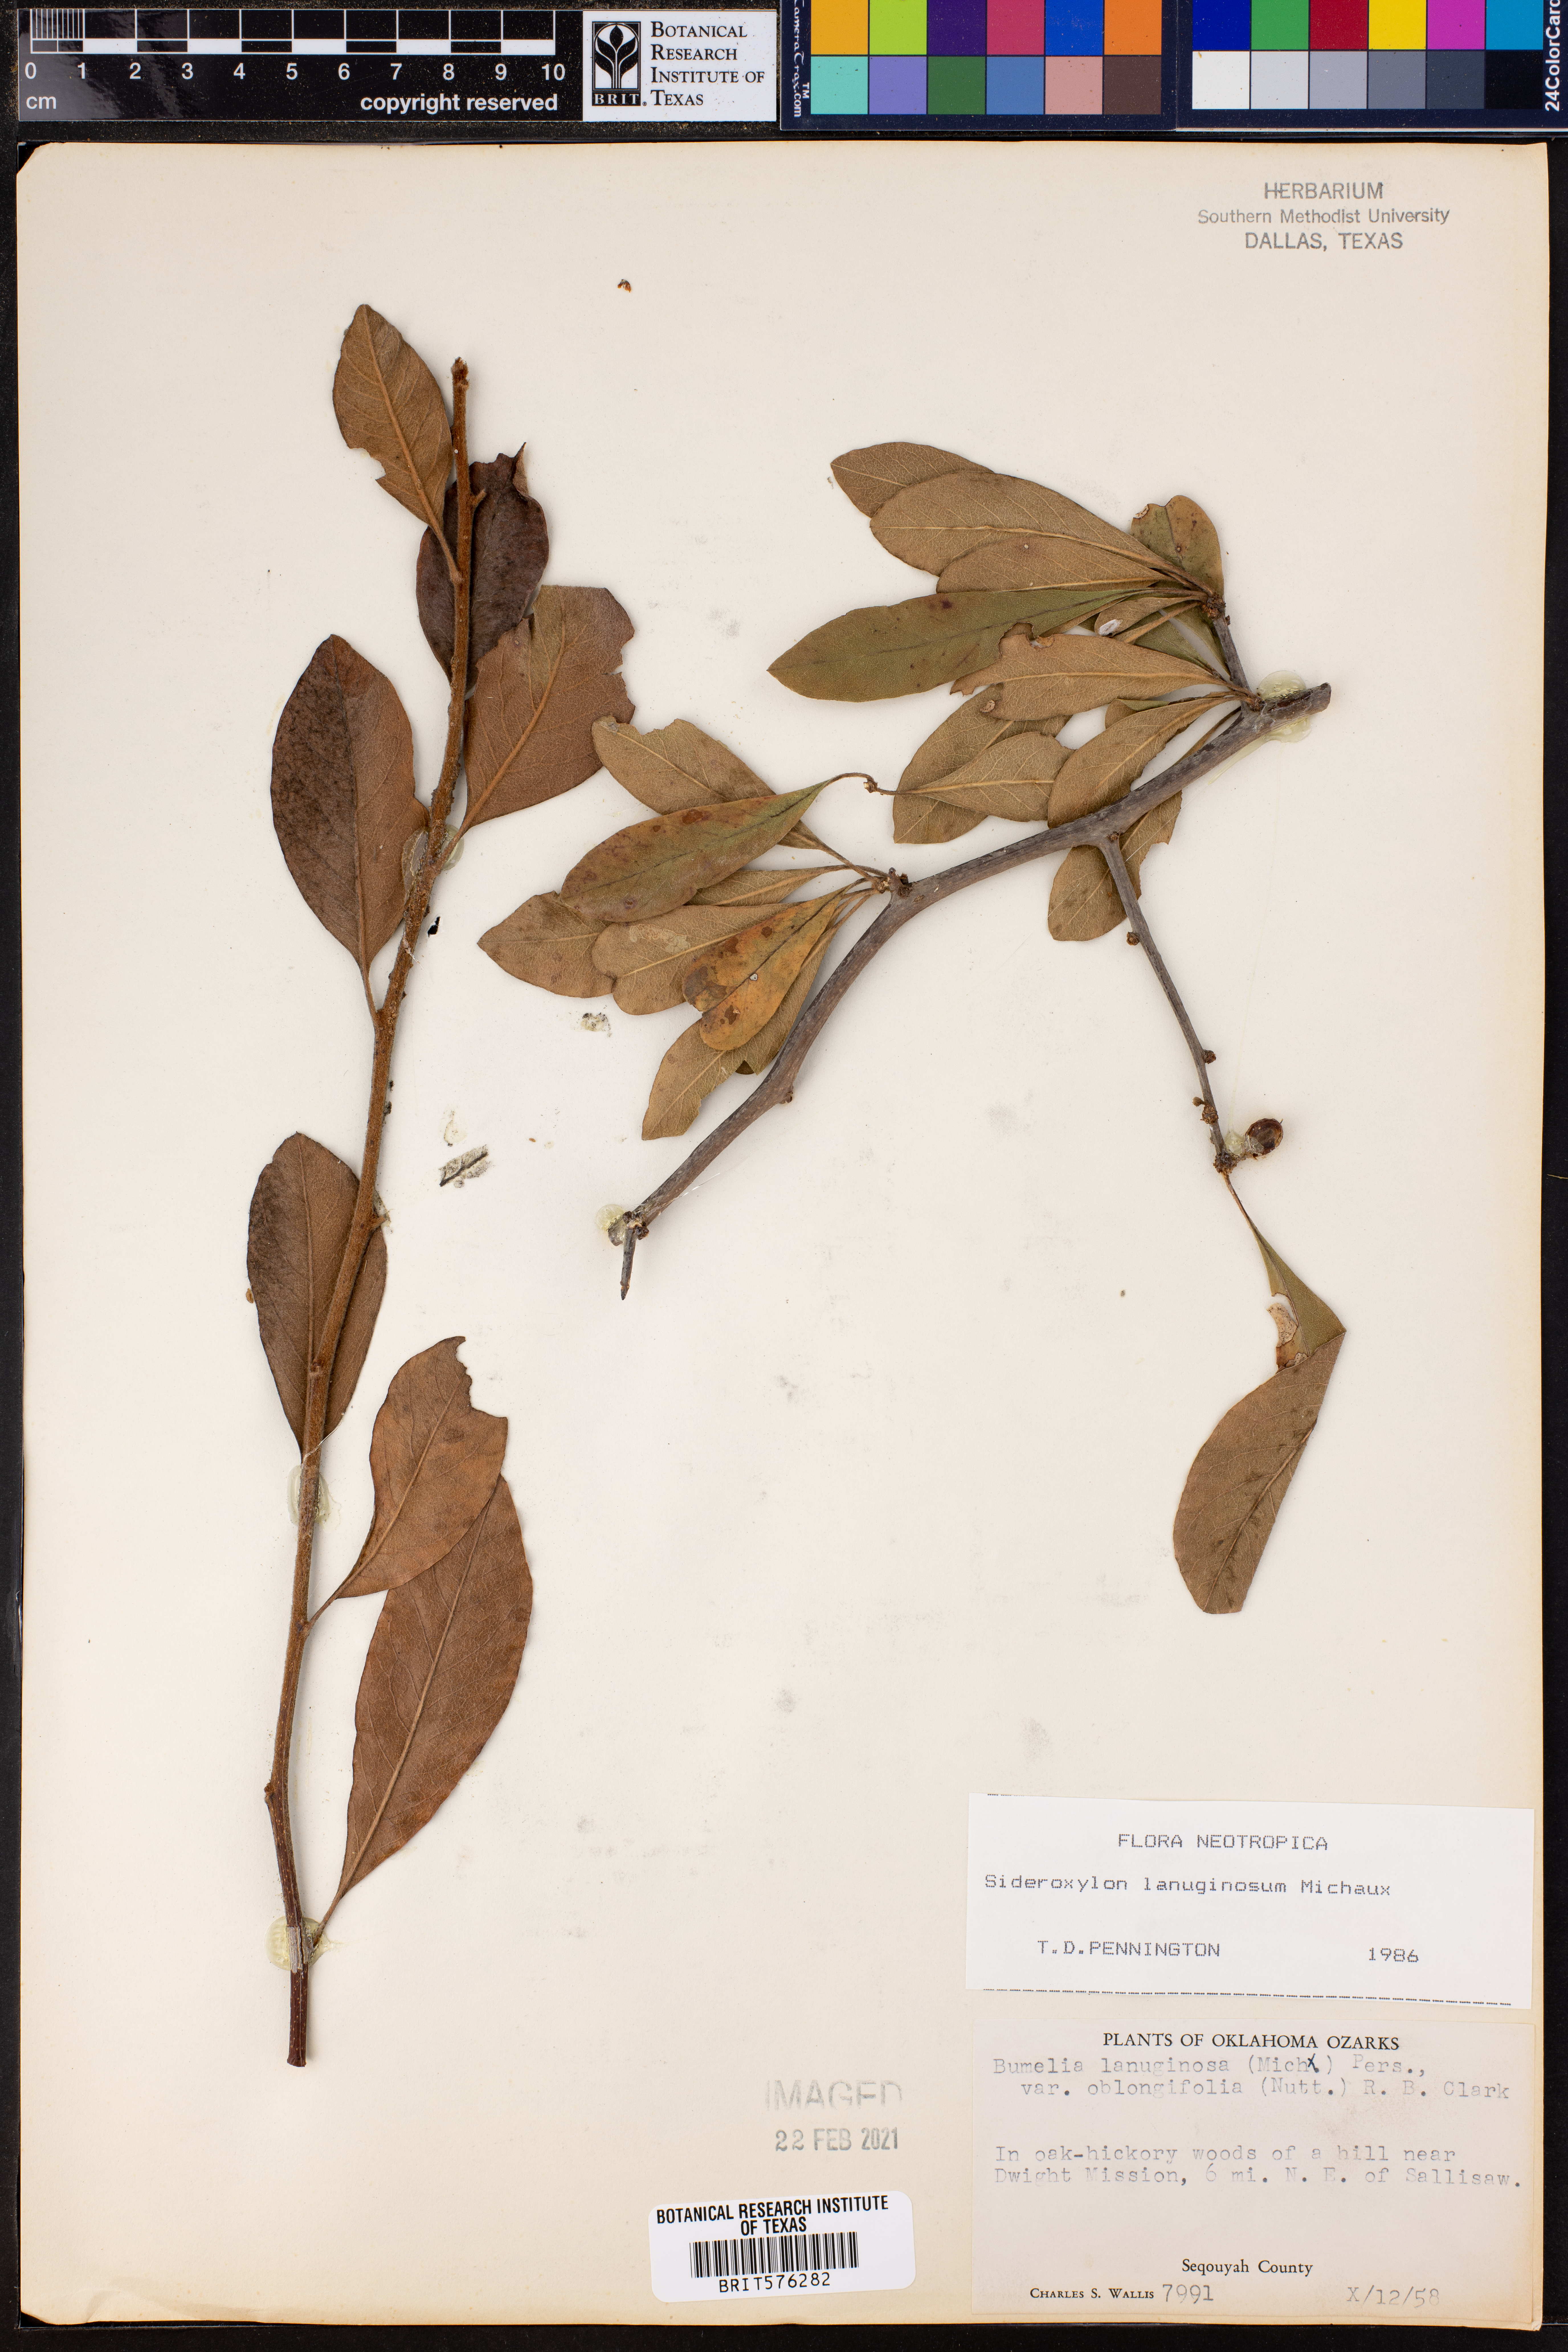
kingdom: Plantae
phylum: Tracheophyta
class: Magnoliopsida
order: Ericales
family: Sapotaceae
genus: Sideroxylon
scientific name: Sideroxylon lanuginosum
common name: Chittamwood
